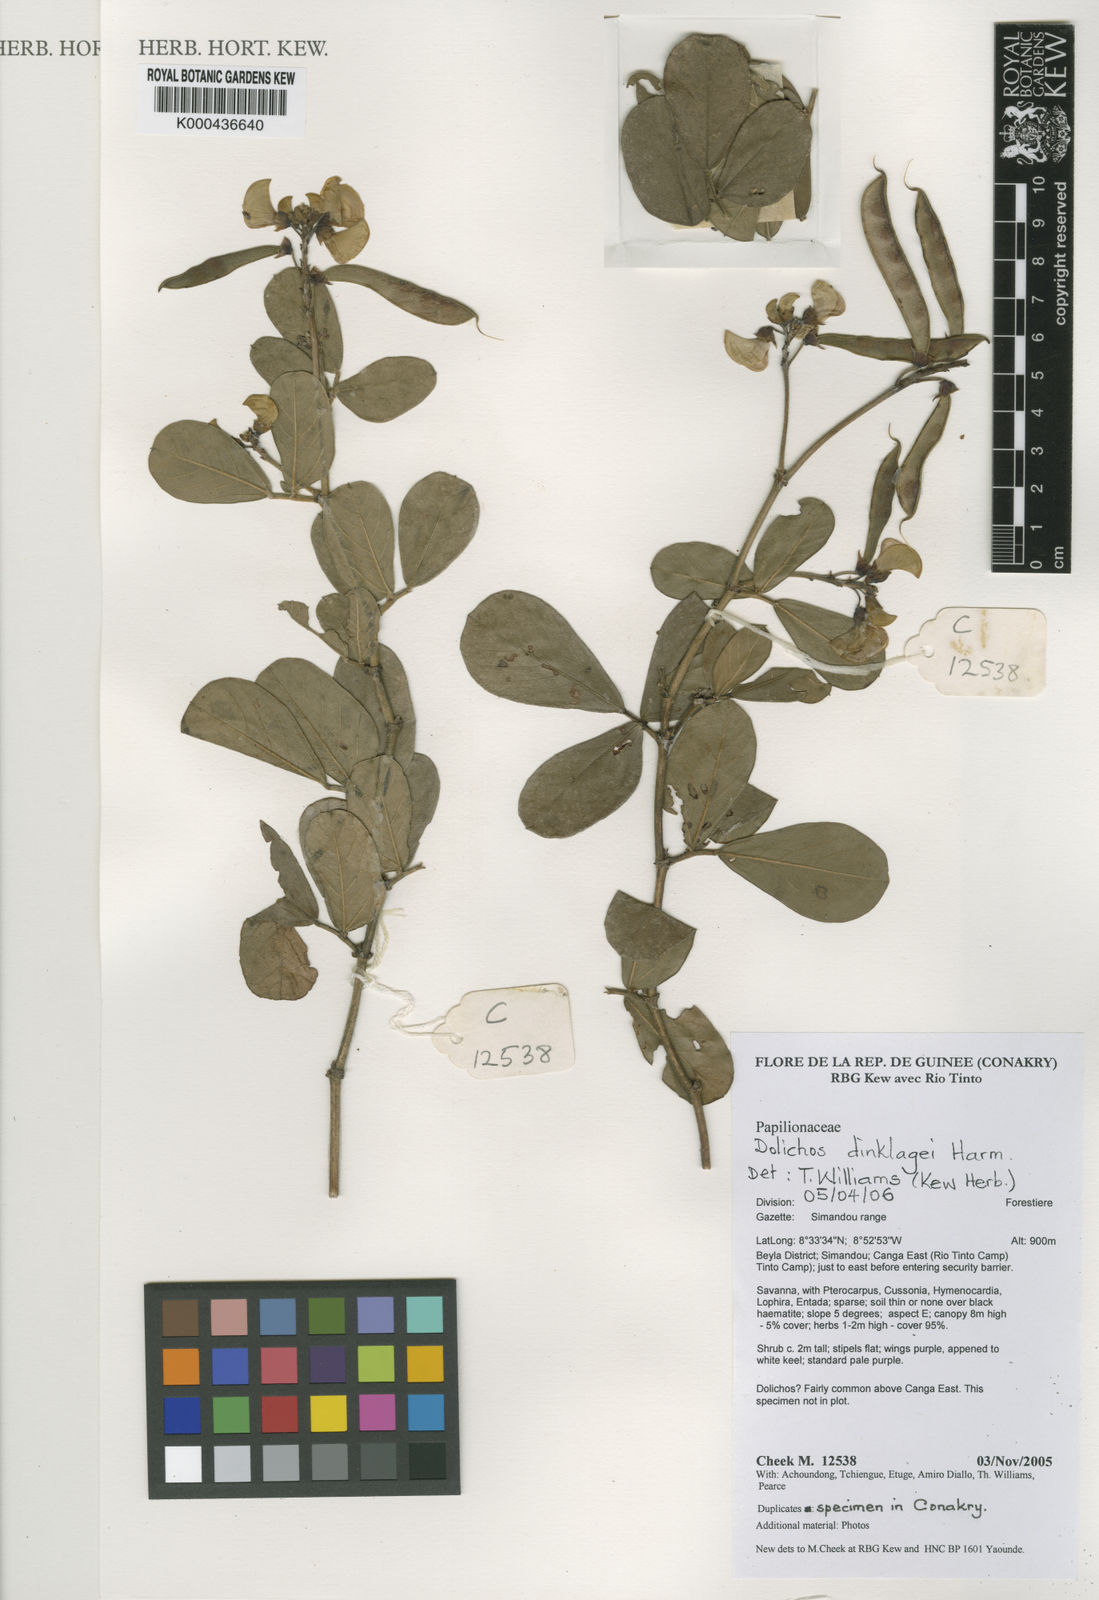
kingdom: Plantae
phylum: Tracheophyta
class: Magnoliopsida
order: Fabales
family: Fabaceae
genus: Dolichos
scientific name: Dolichos dinklagei
